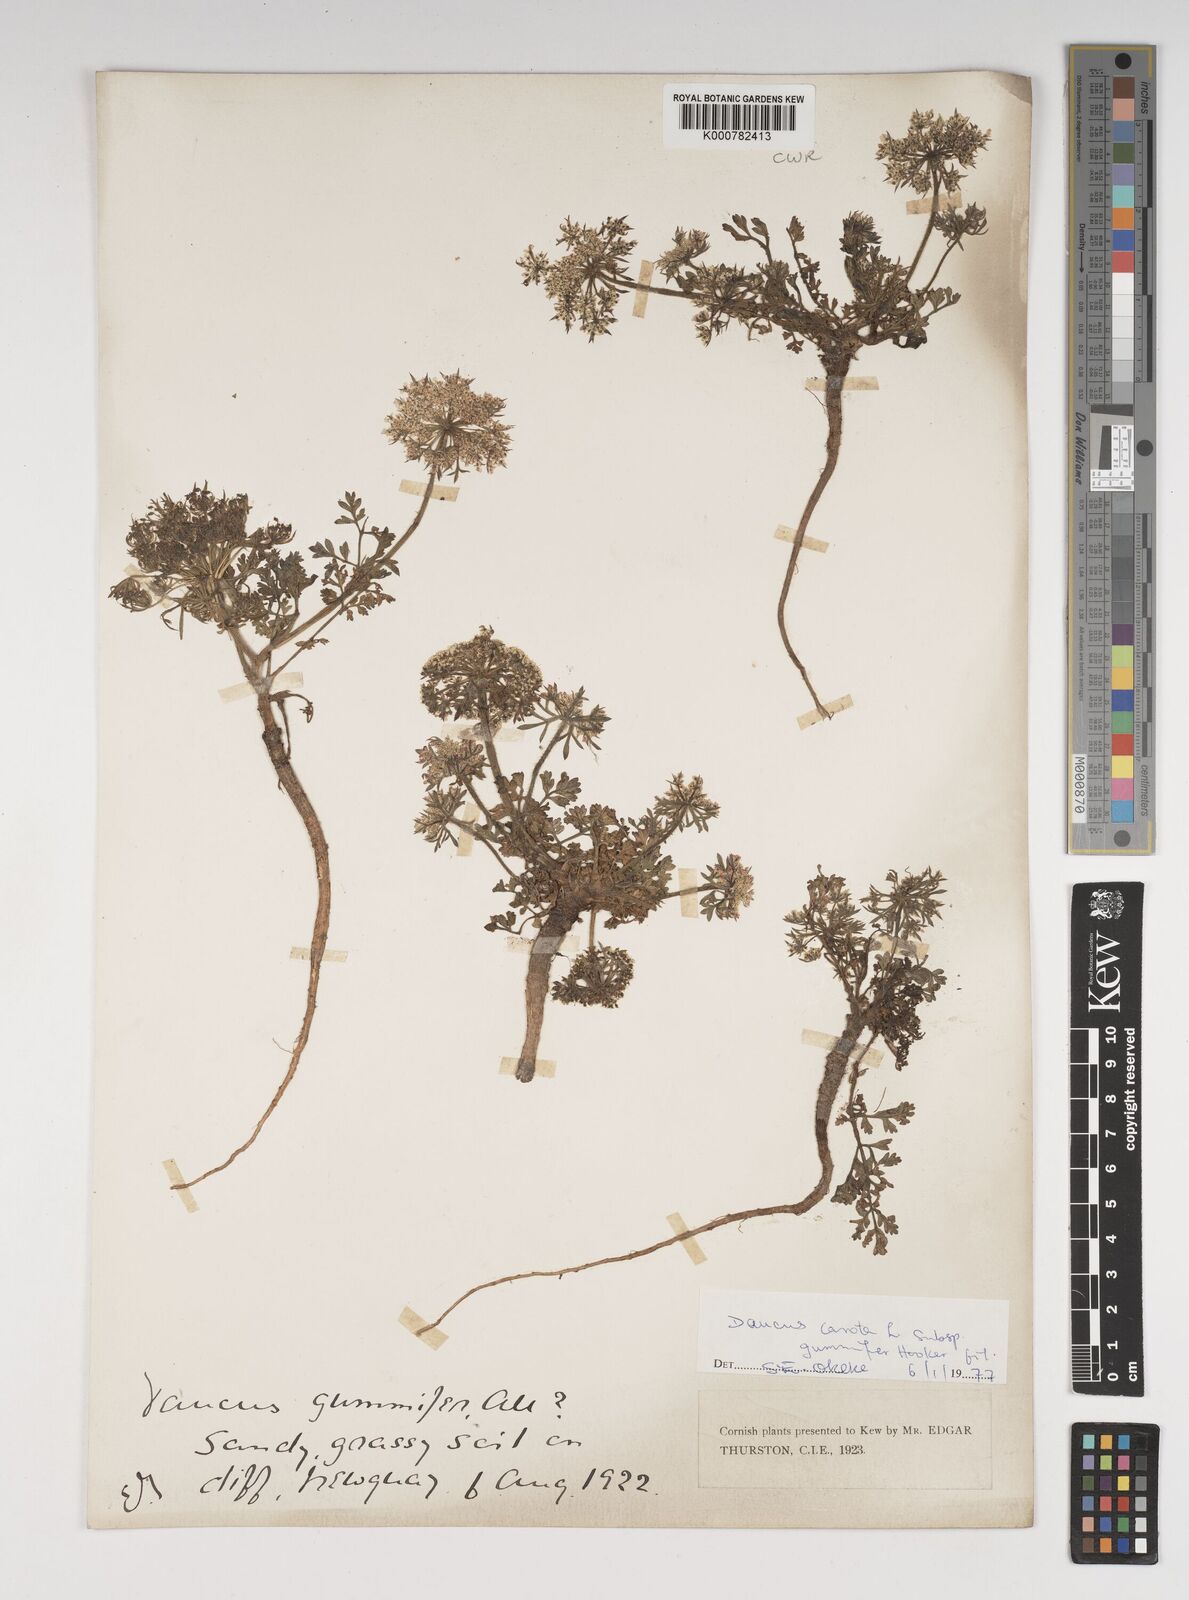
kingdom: Plantae
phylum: Tracheophyta
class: Magnoliopsida
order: Apiales
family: Apiaceae
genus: Daucus
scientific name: Daucus carota
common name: Wild carrot
